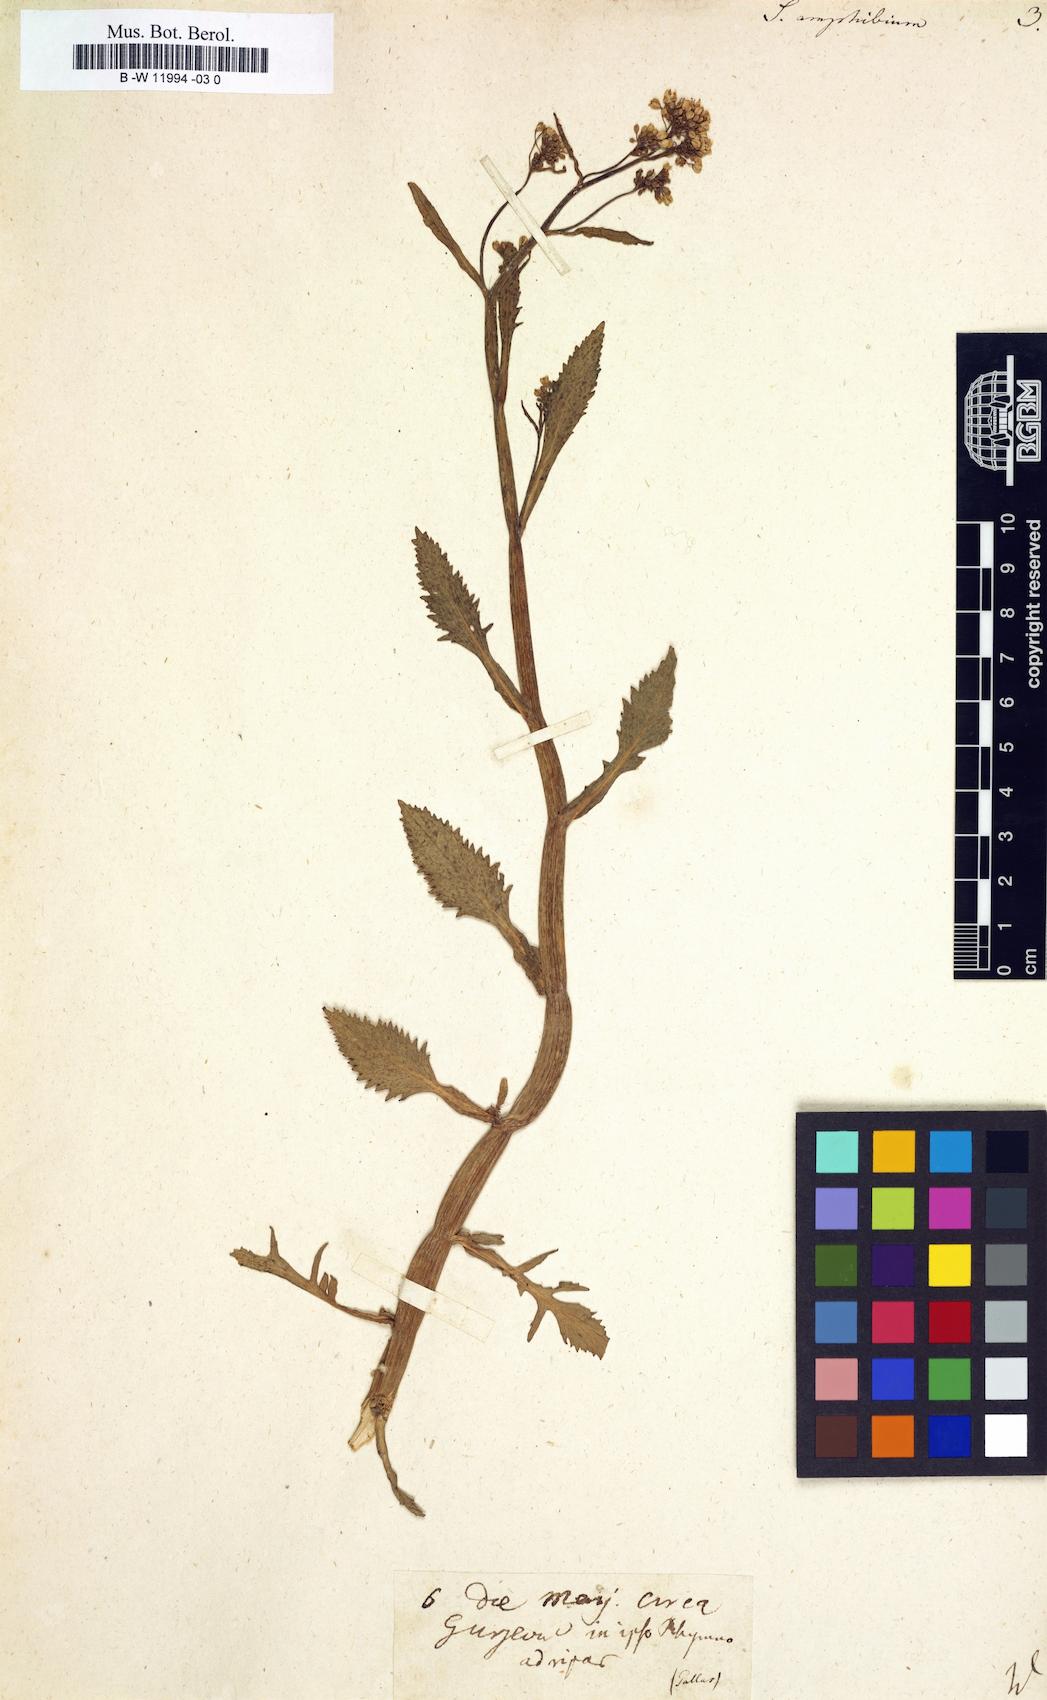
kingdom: Plantae
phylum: Tracheophyta
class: Magnoliopsida
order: Brassicales
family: Brassicaceae
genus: Rorippa
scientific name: Rorippa amphibia
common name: Great yellow-cress
